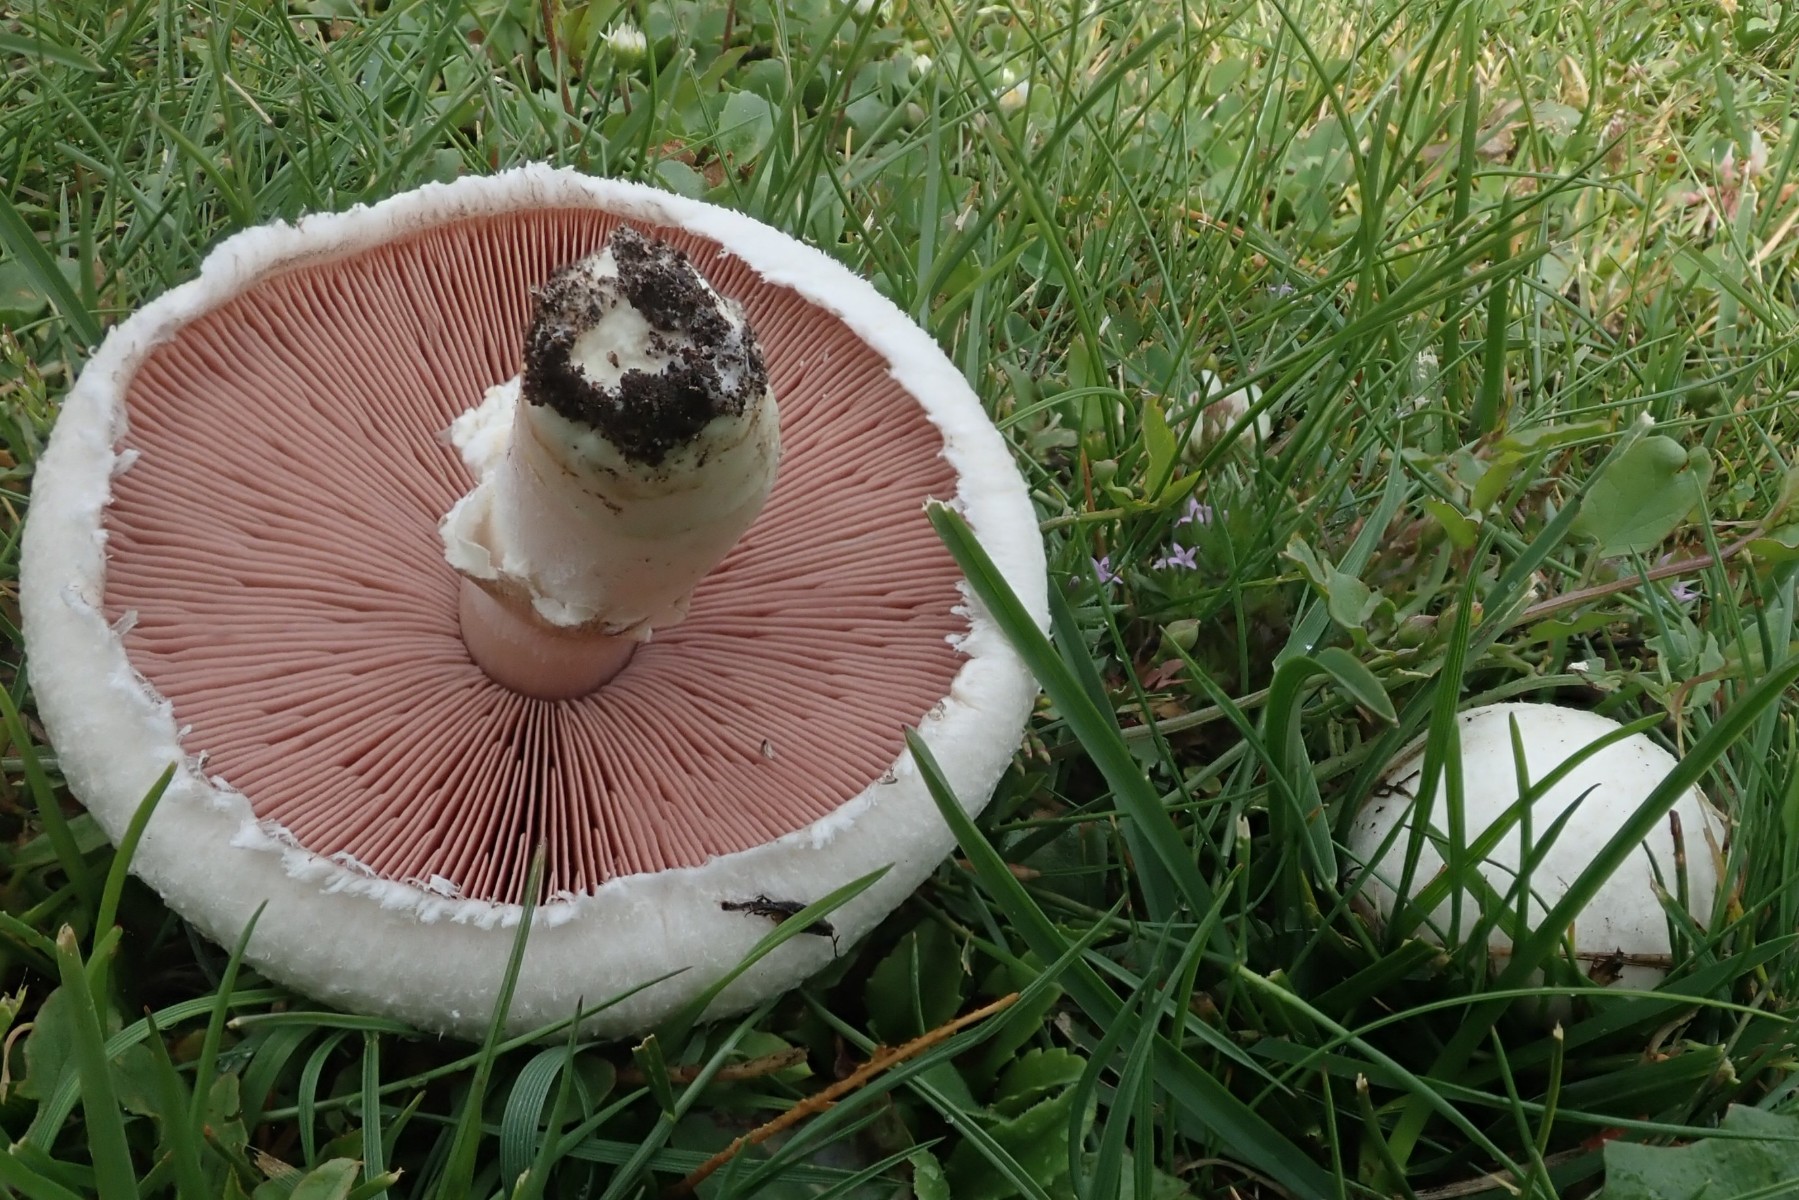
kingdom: Fungi
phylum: Basidiomycota
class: Agaricomycetes
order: Agaricales
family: Agaricaceae
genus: Agaricus
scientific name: Agaricus campestris
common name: mark-champignon
